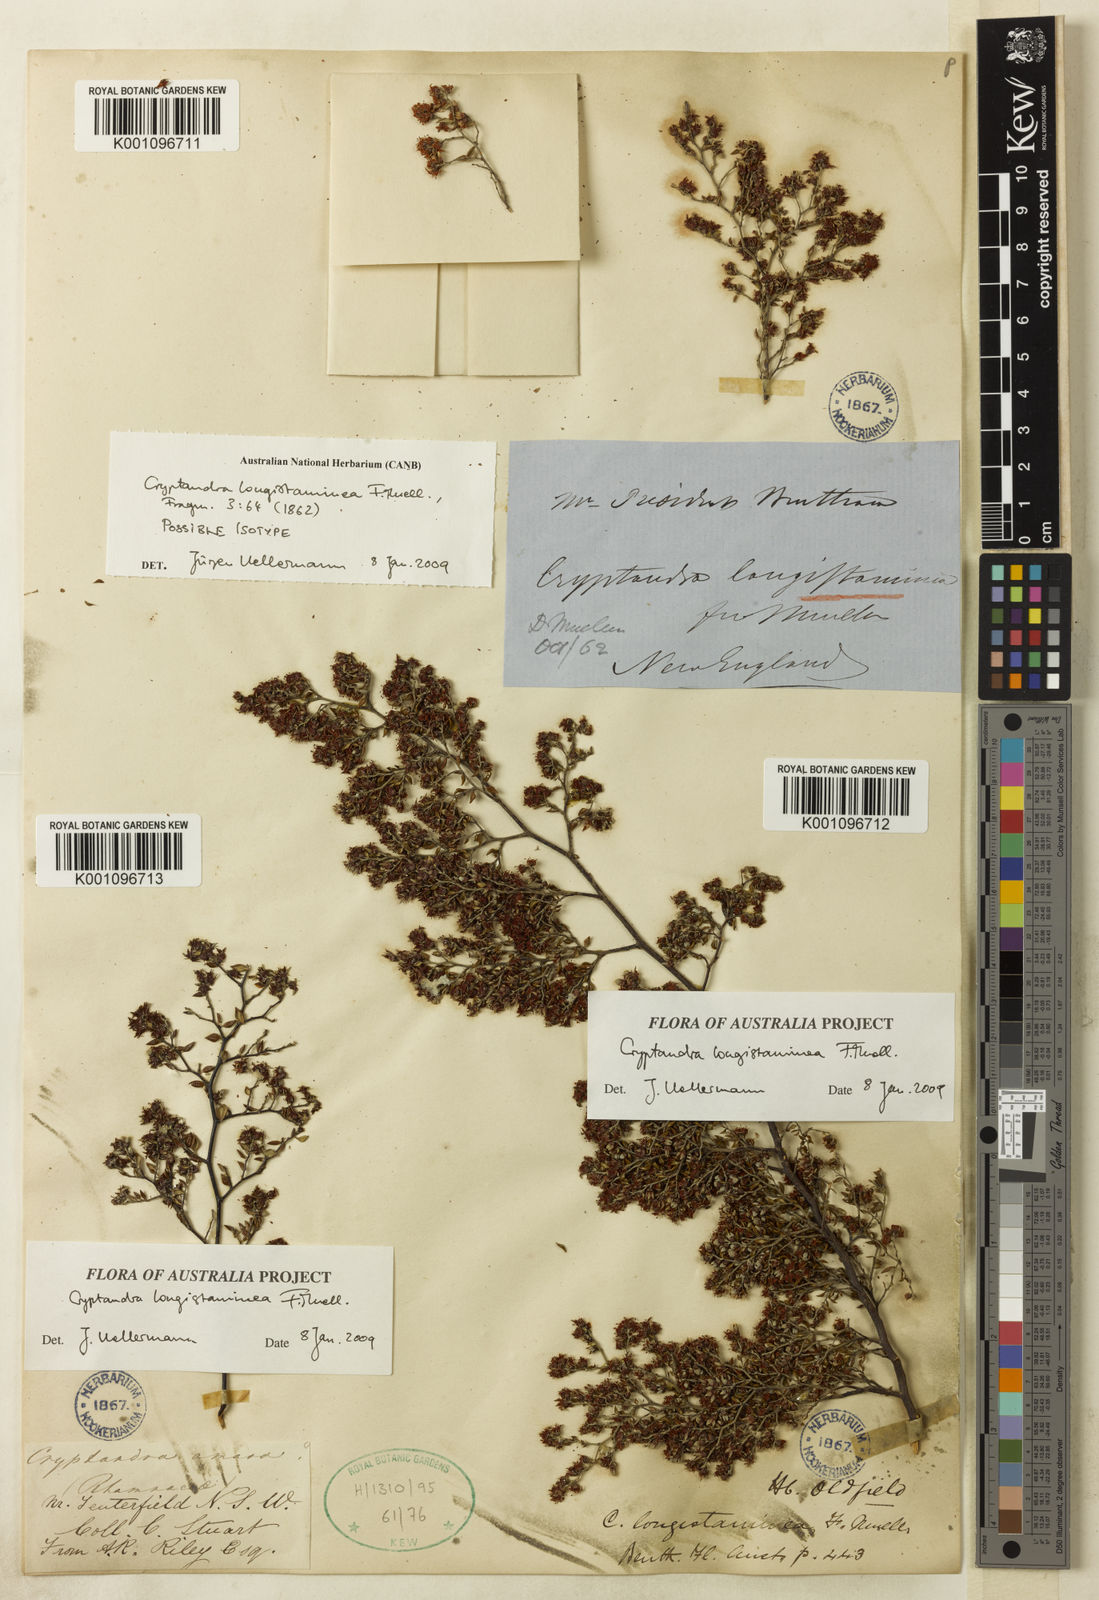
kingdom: Plantae
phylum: Tracheophyta
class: Magnoliopsida
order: Rosales
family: Rhamnaceae
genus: Cryptandra
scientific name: Cryptandra longistaminea
